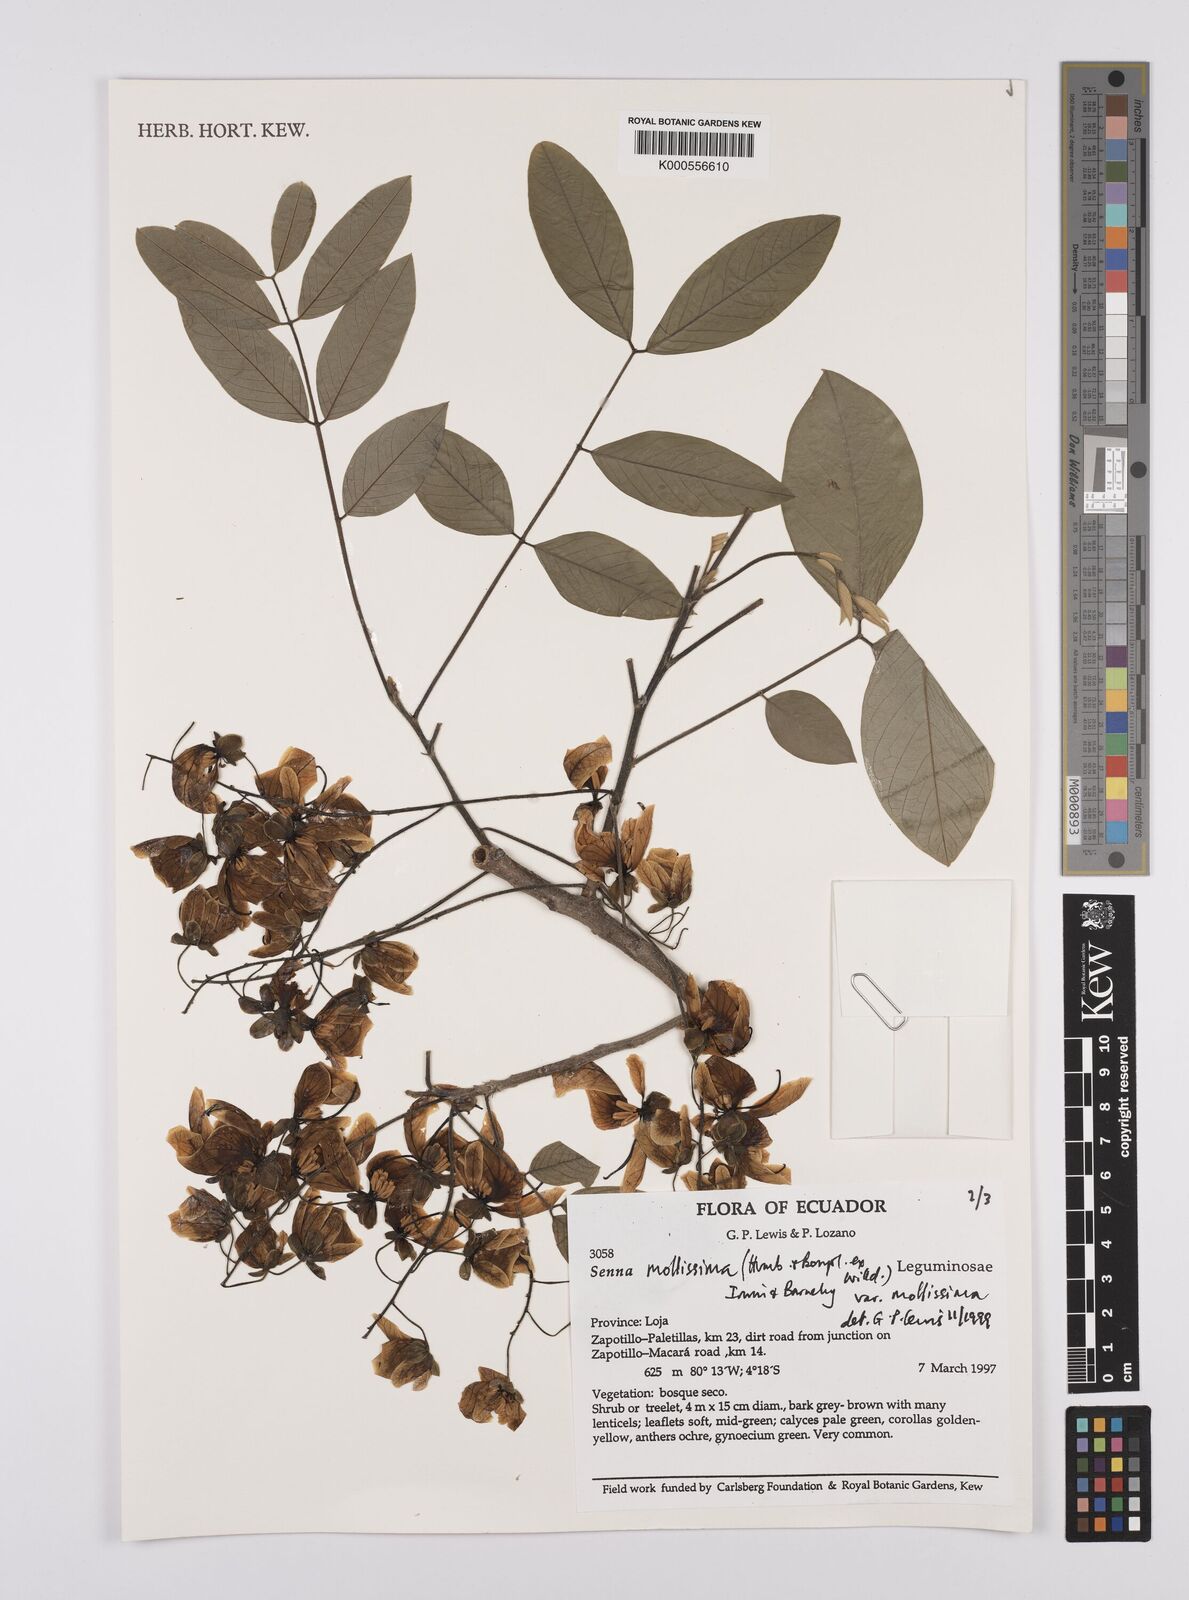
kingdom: Plantae
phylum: Tracheophyta
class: Magnoliopsida
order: Fabales
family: Fabaceae
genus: Senna
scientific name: Senna mollissima
